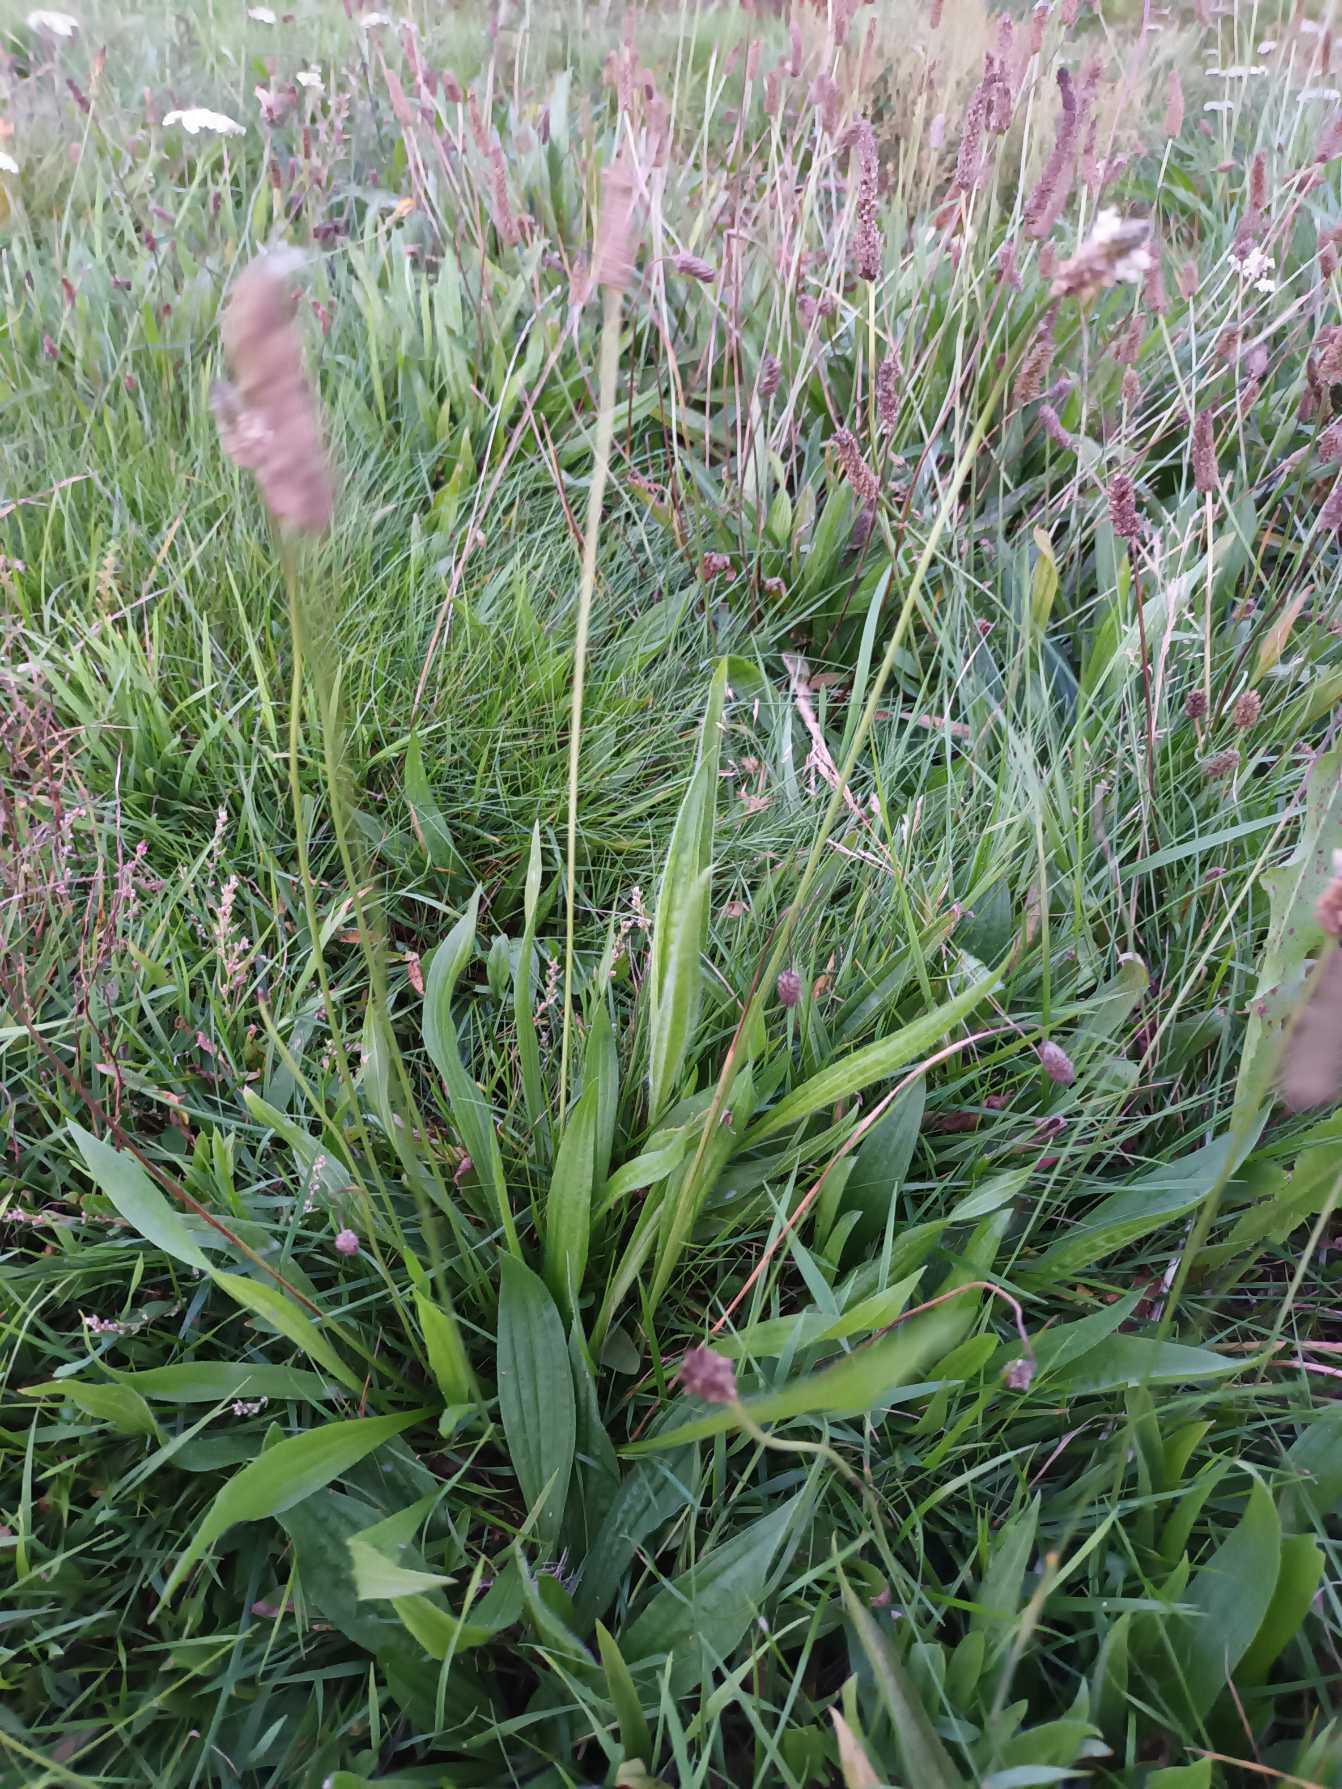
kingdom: Plantae
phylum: Tracheophyta
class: Magnoliopsida
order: Lamiales
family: Plantaginaceae
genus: Plantago
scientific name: Plantago lanceolata
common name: Lancet-vejbred
